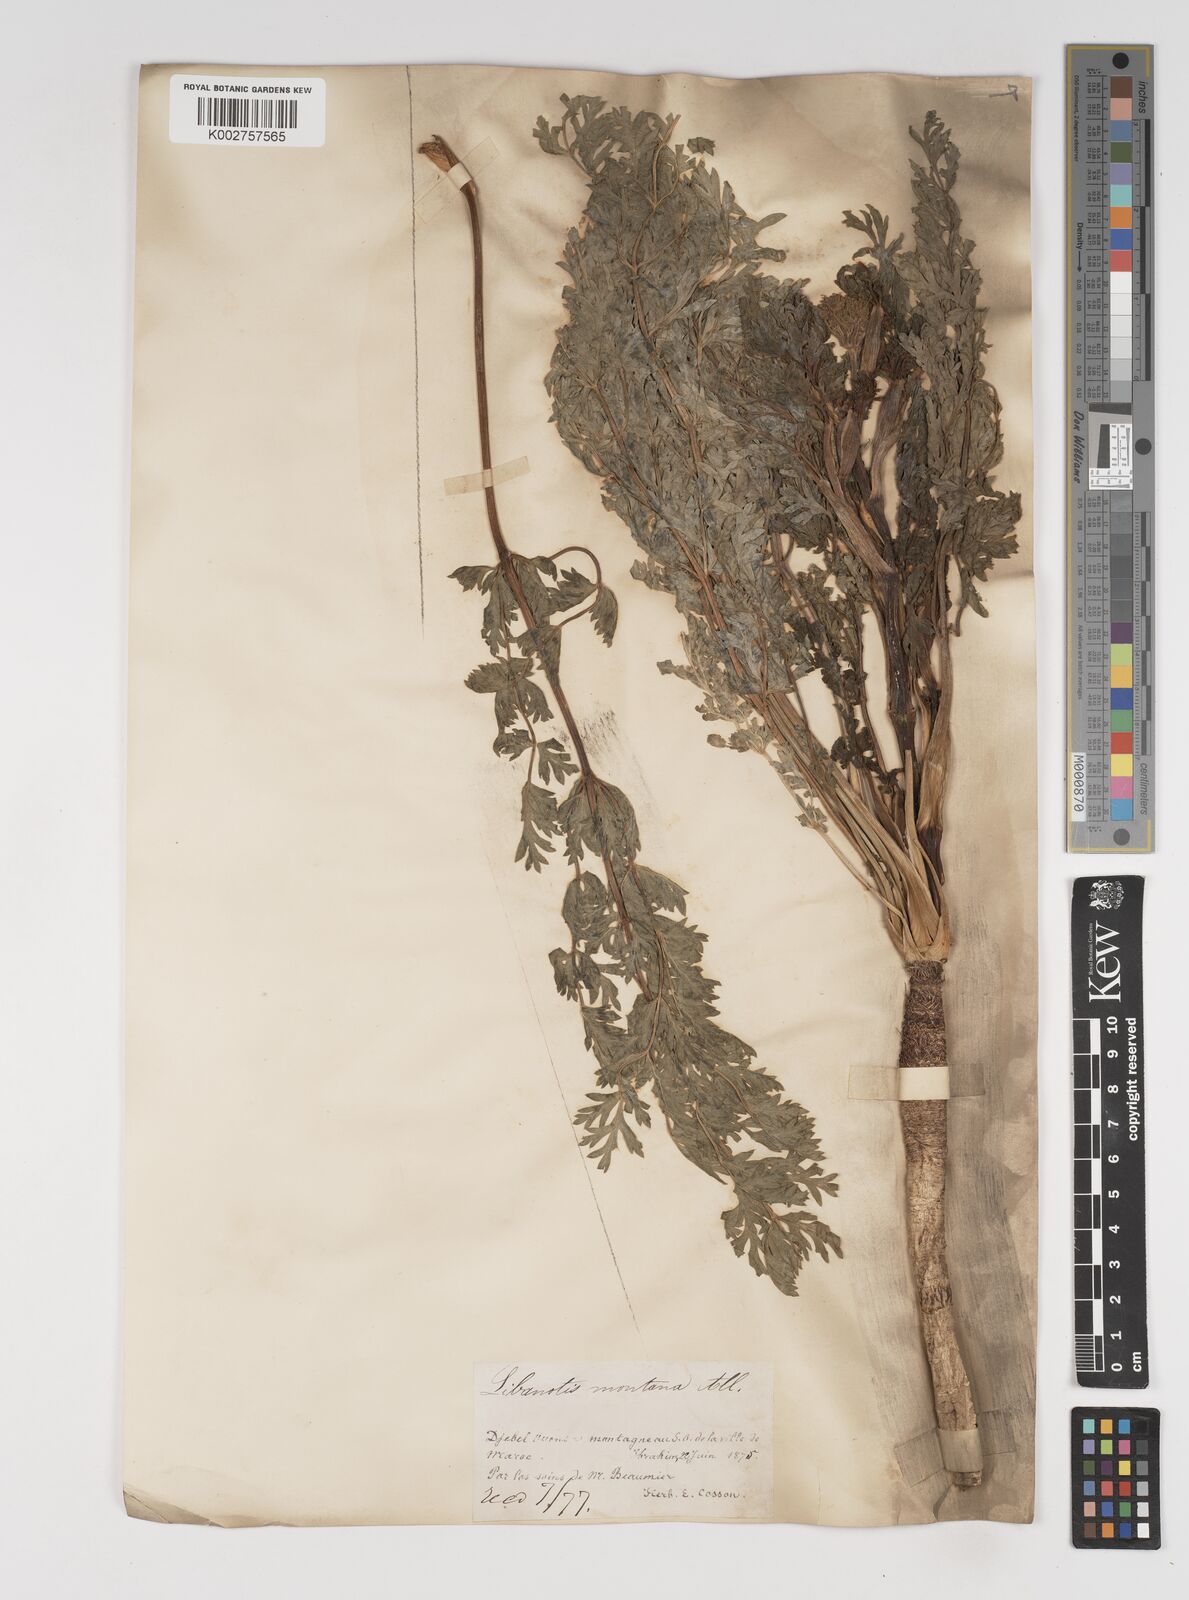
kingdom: Plantae
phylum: Tracheophyta
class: Magnoliopsida
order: Apiales
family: Apiaceae
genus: Seseli
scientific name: Seseli montanum
